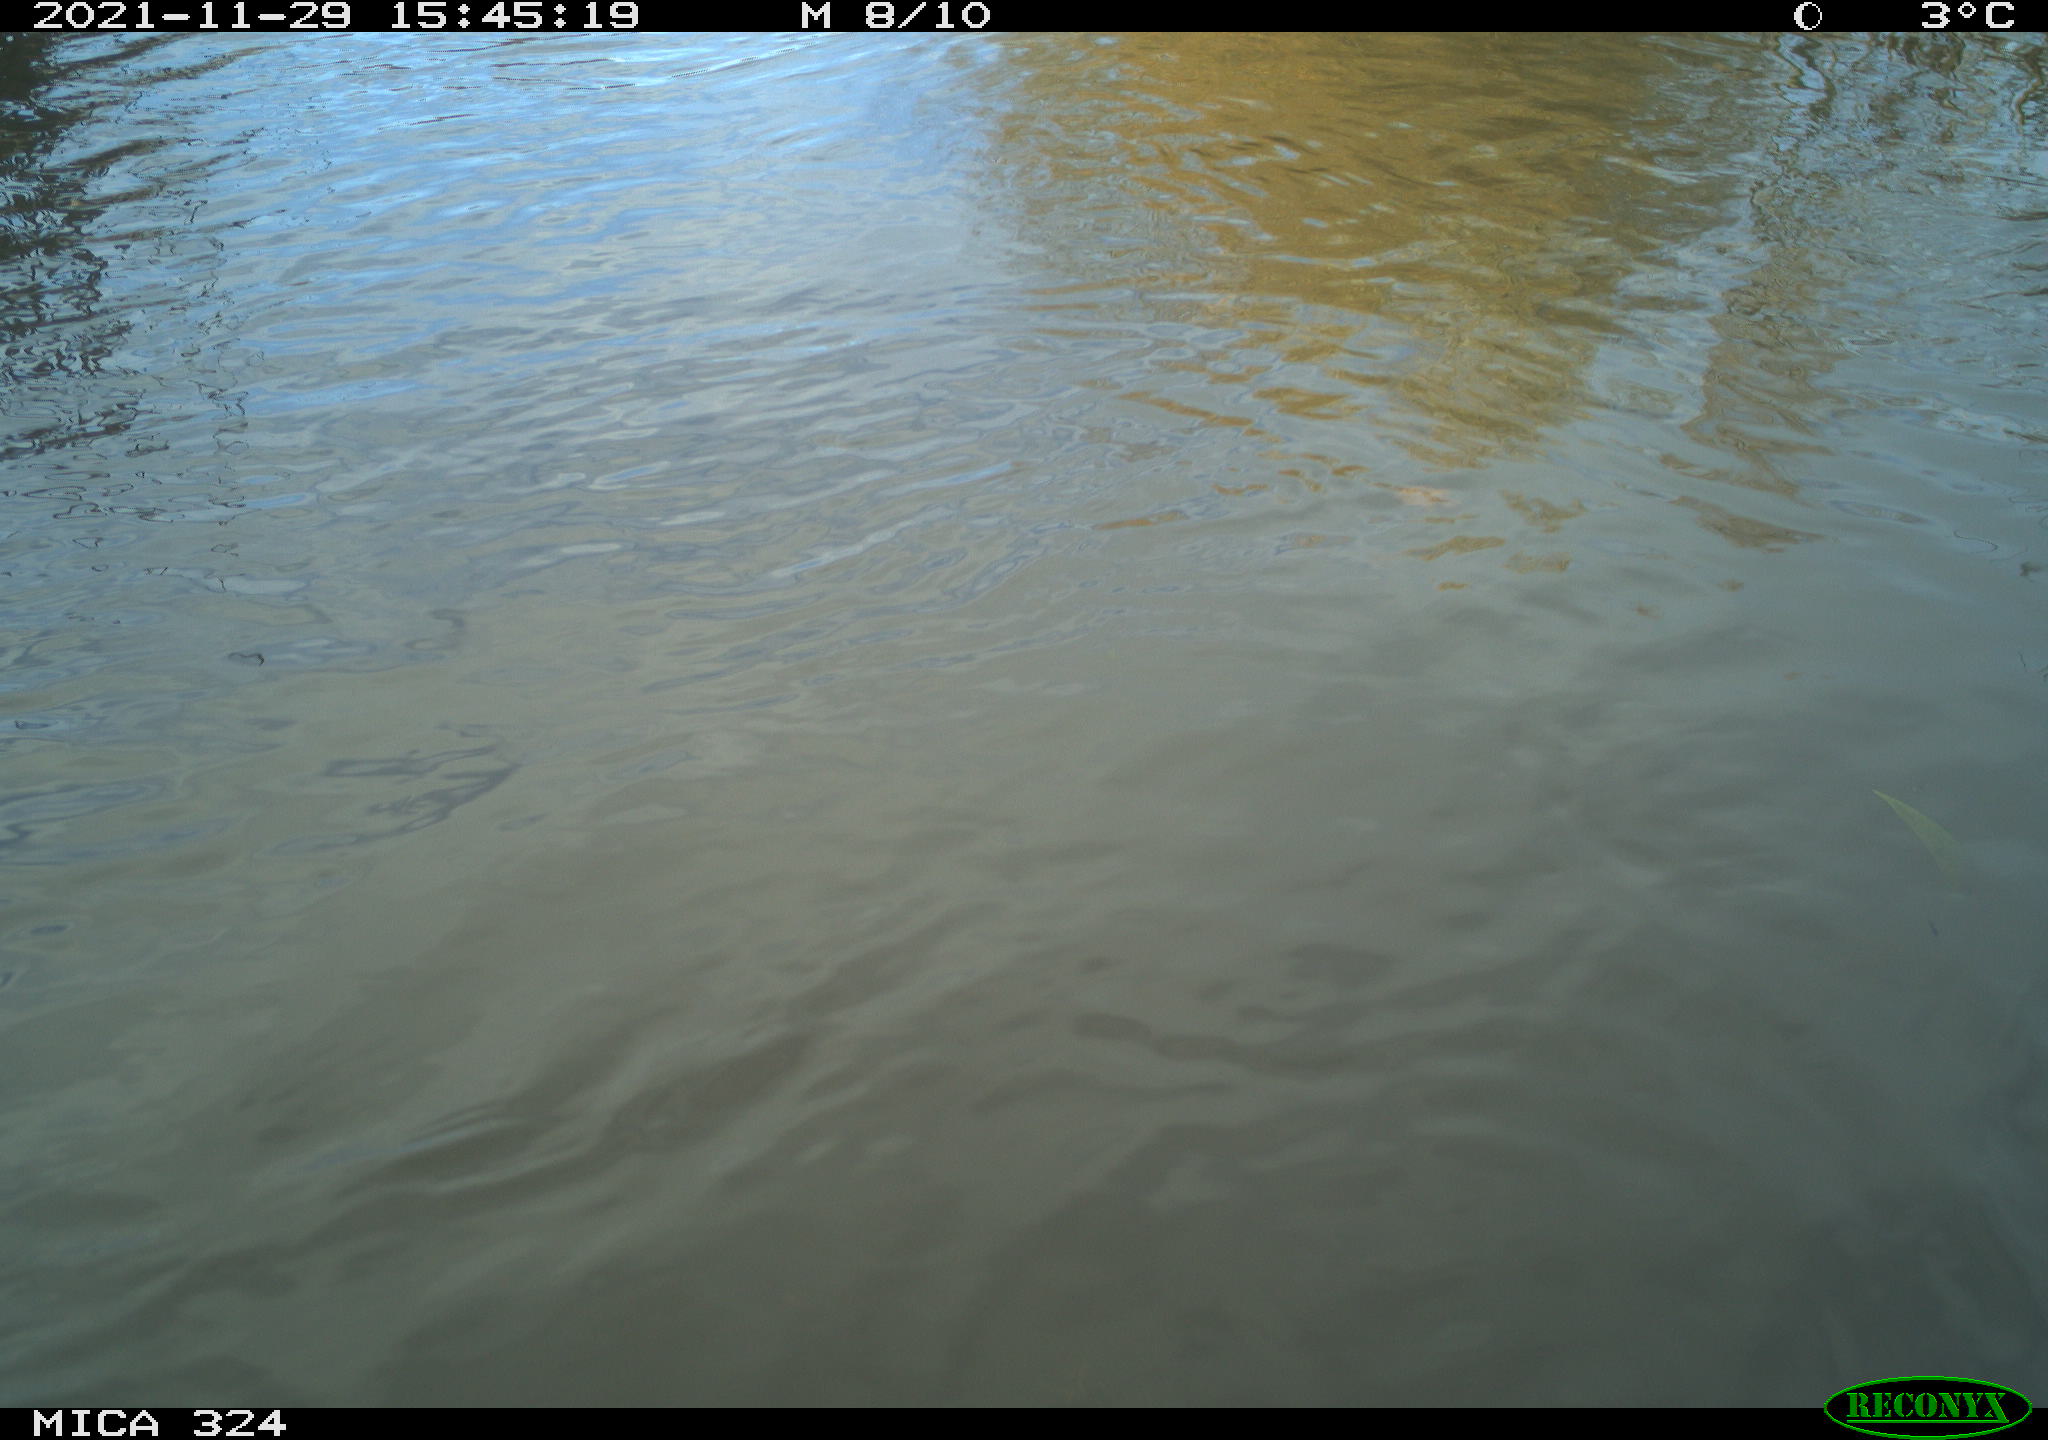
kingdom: Animalia
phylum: Chordata
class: Mammalia
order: Rodentia
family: Cricetidae
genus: Ondatra
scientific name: Ondatra zibethicus
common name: Muskrat
